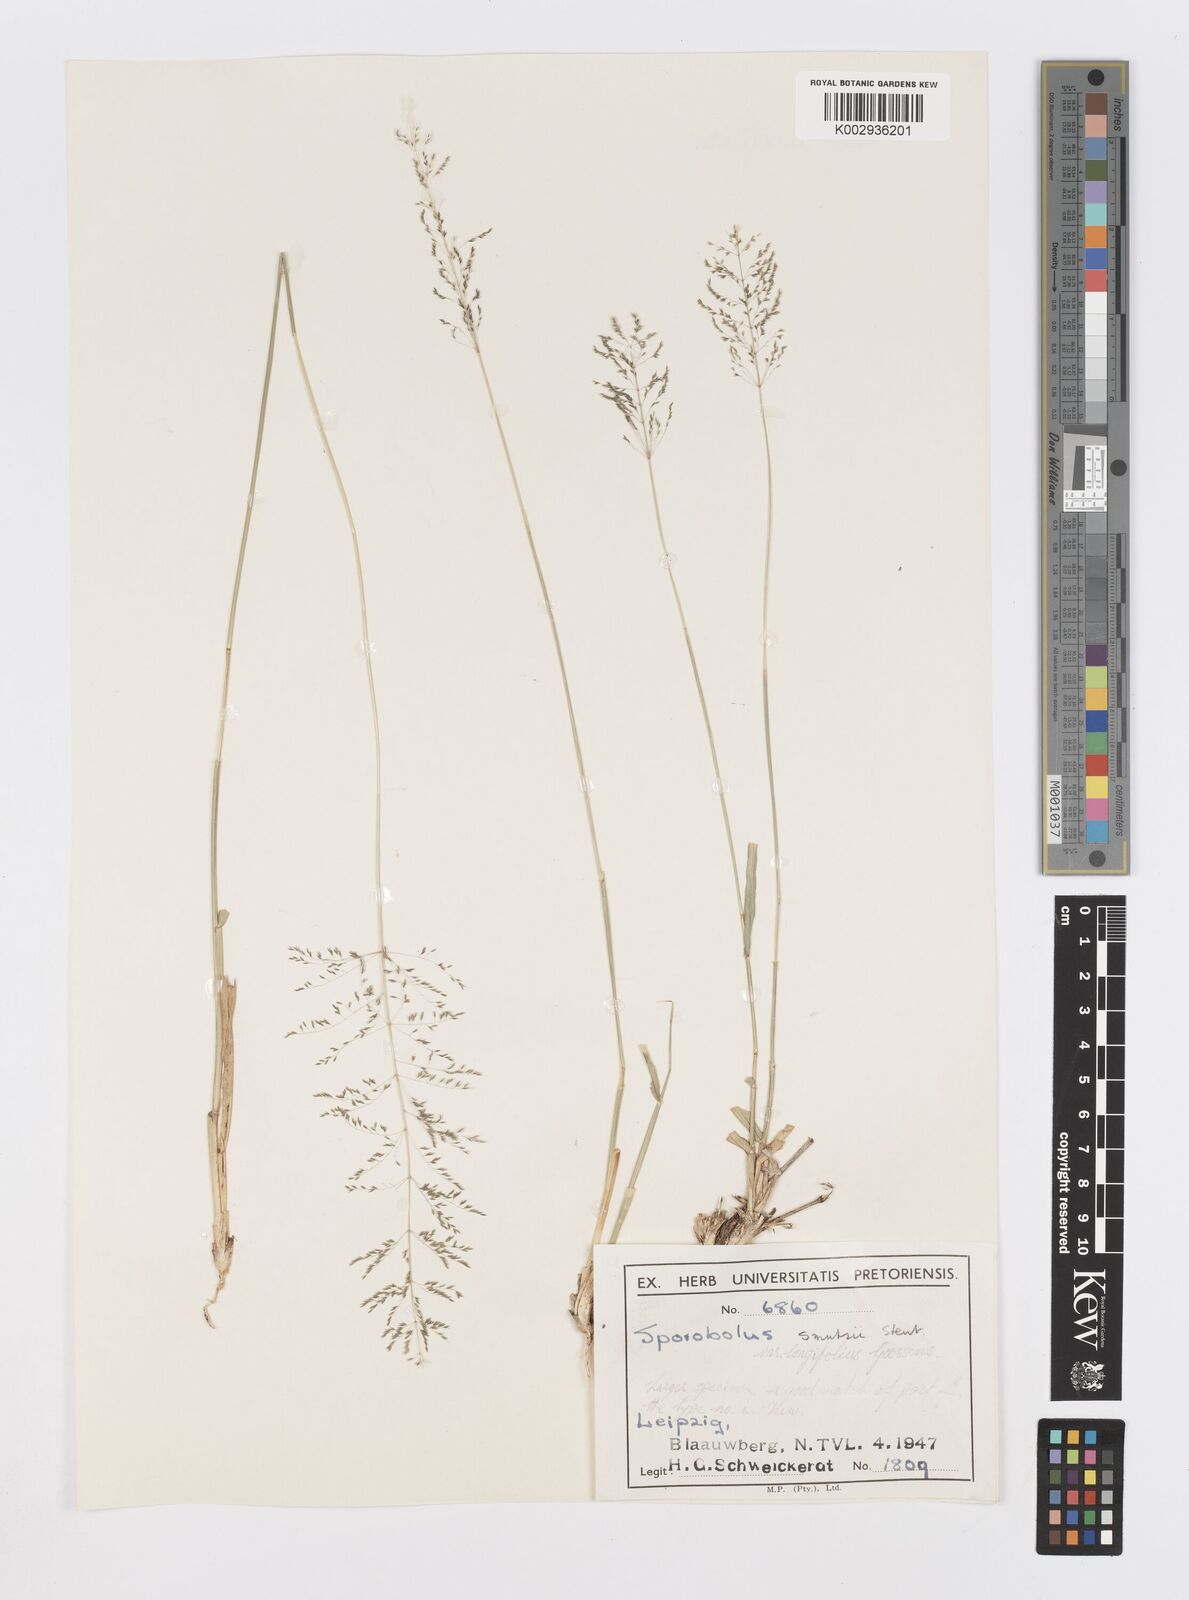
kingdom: Plantae
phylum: Tracheophyta
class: Liliopsida
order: Poales
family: Poaceae
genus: Sporobolus
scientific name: Sporobolus ioclados
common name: Pan dropseed
